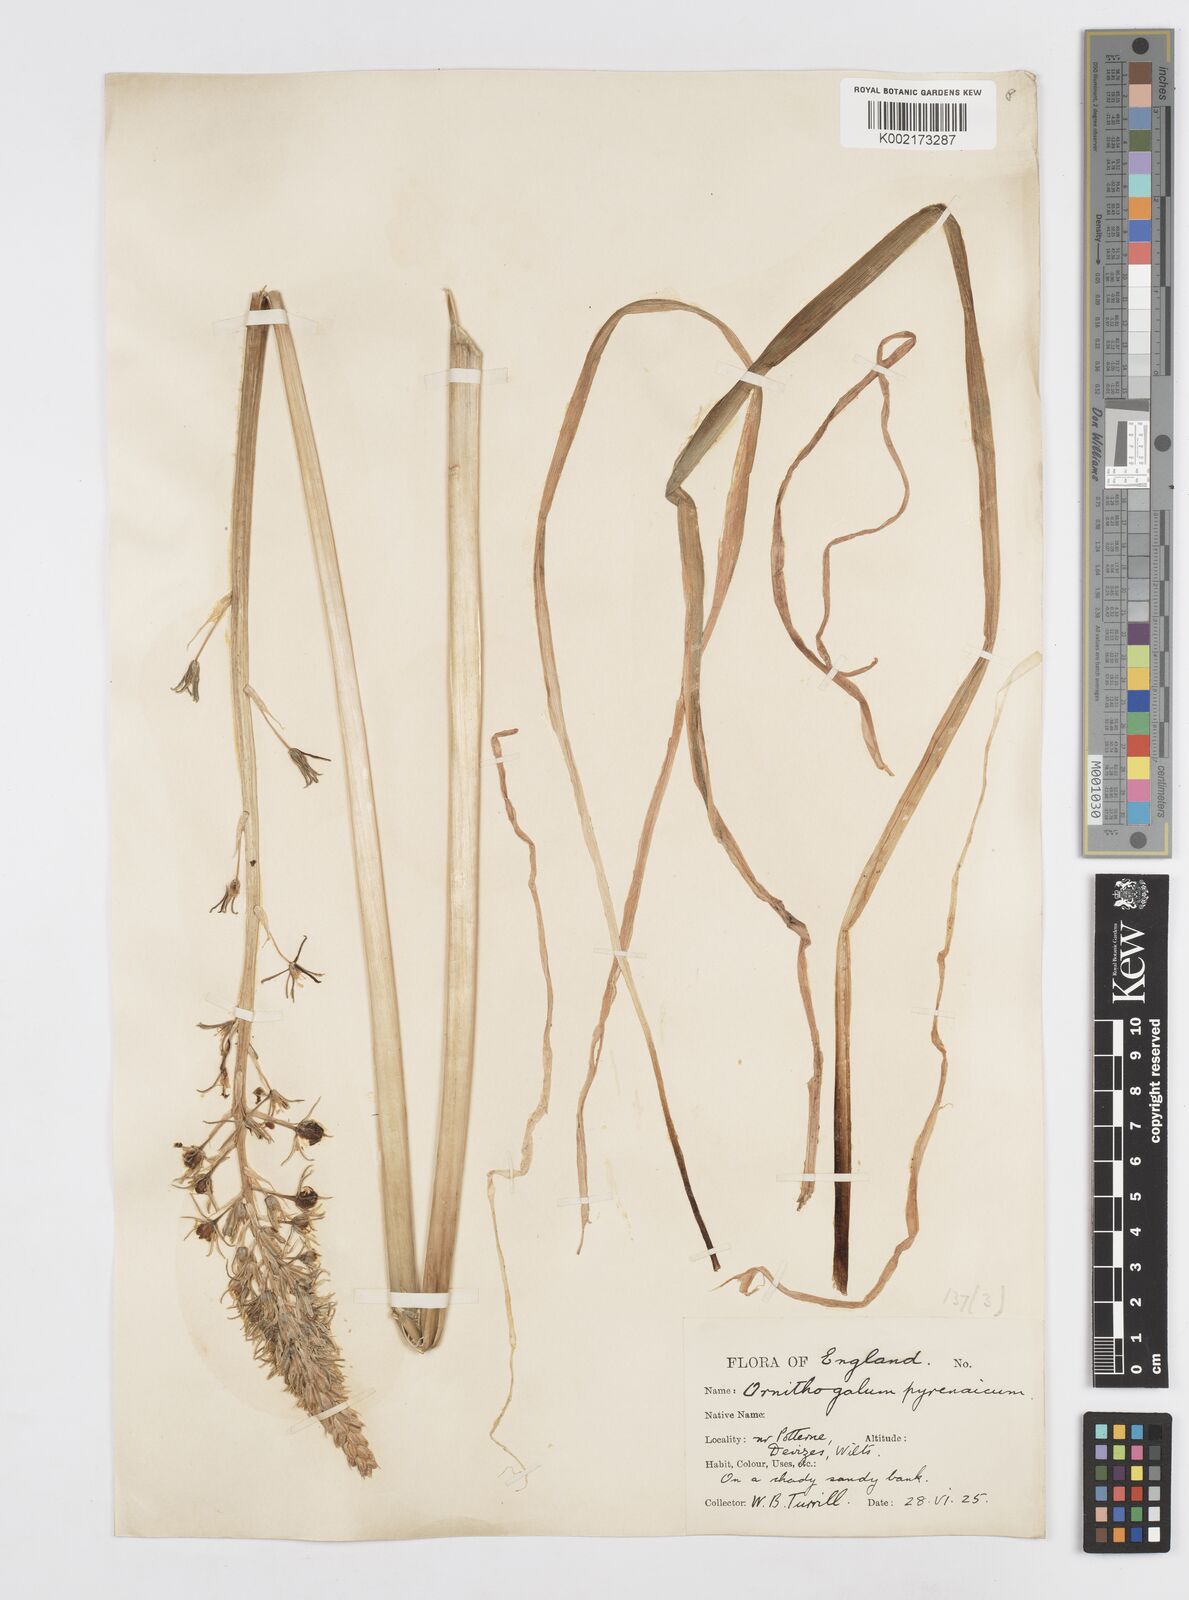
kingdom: Plantae
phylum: Tracheophyta
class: Liliopsida
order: Asparagales
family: Asparagaceae
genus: Ornithogalum
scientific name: Ornithogalum pyrenaicum
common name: Spiked star-of-bethlehem
